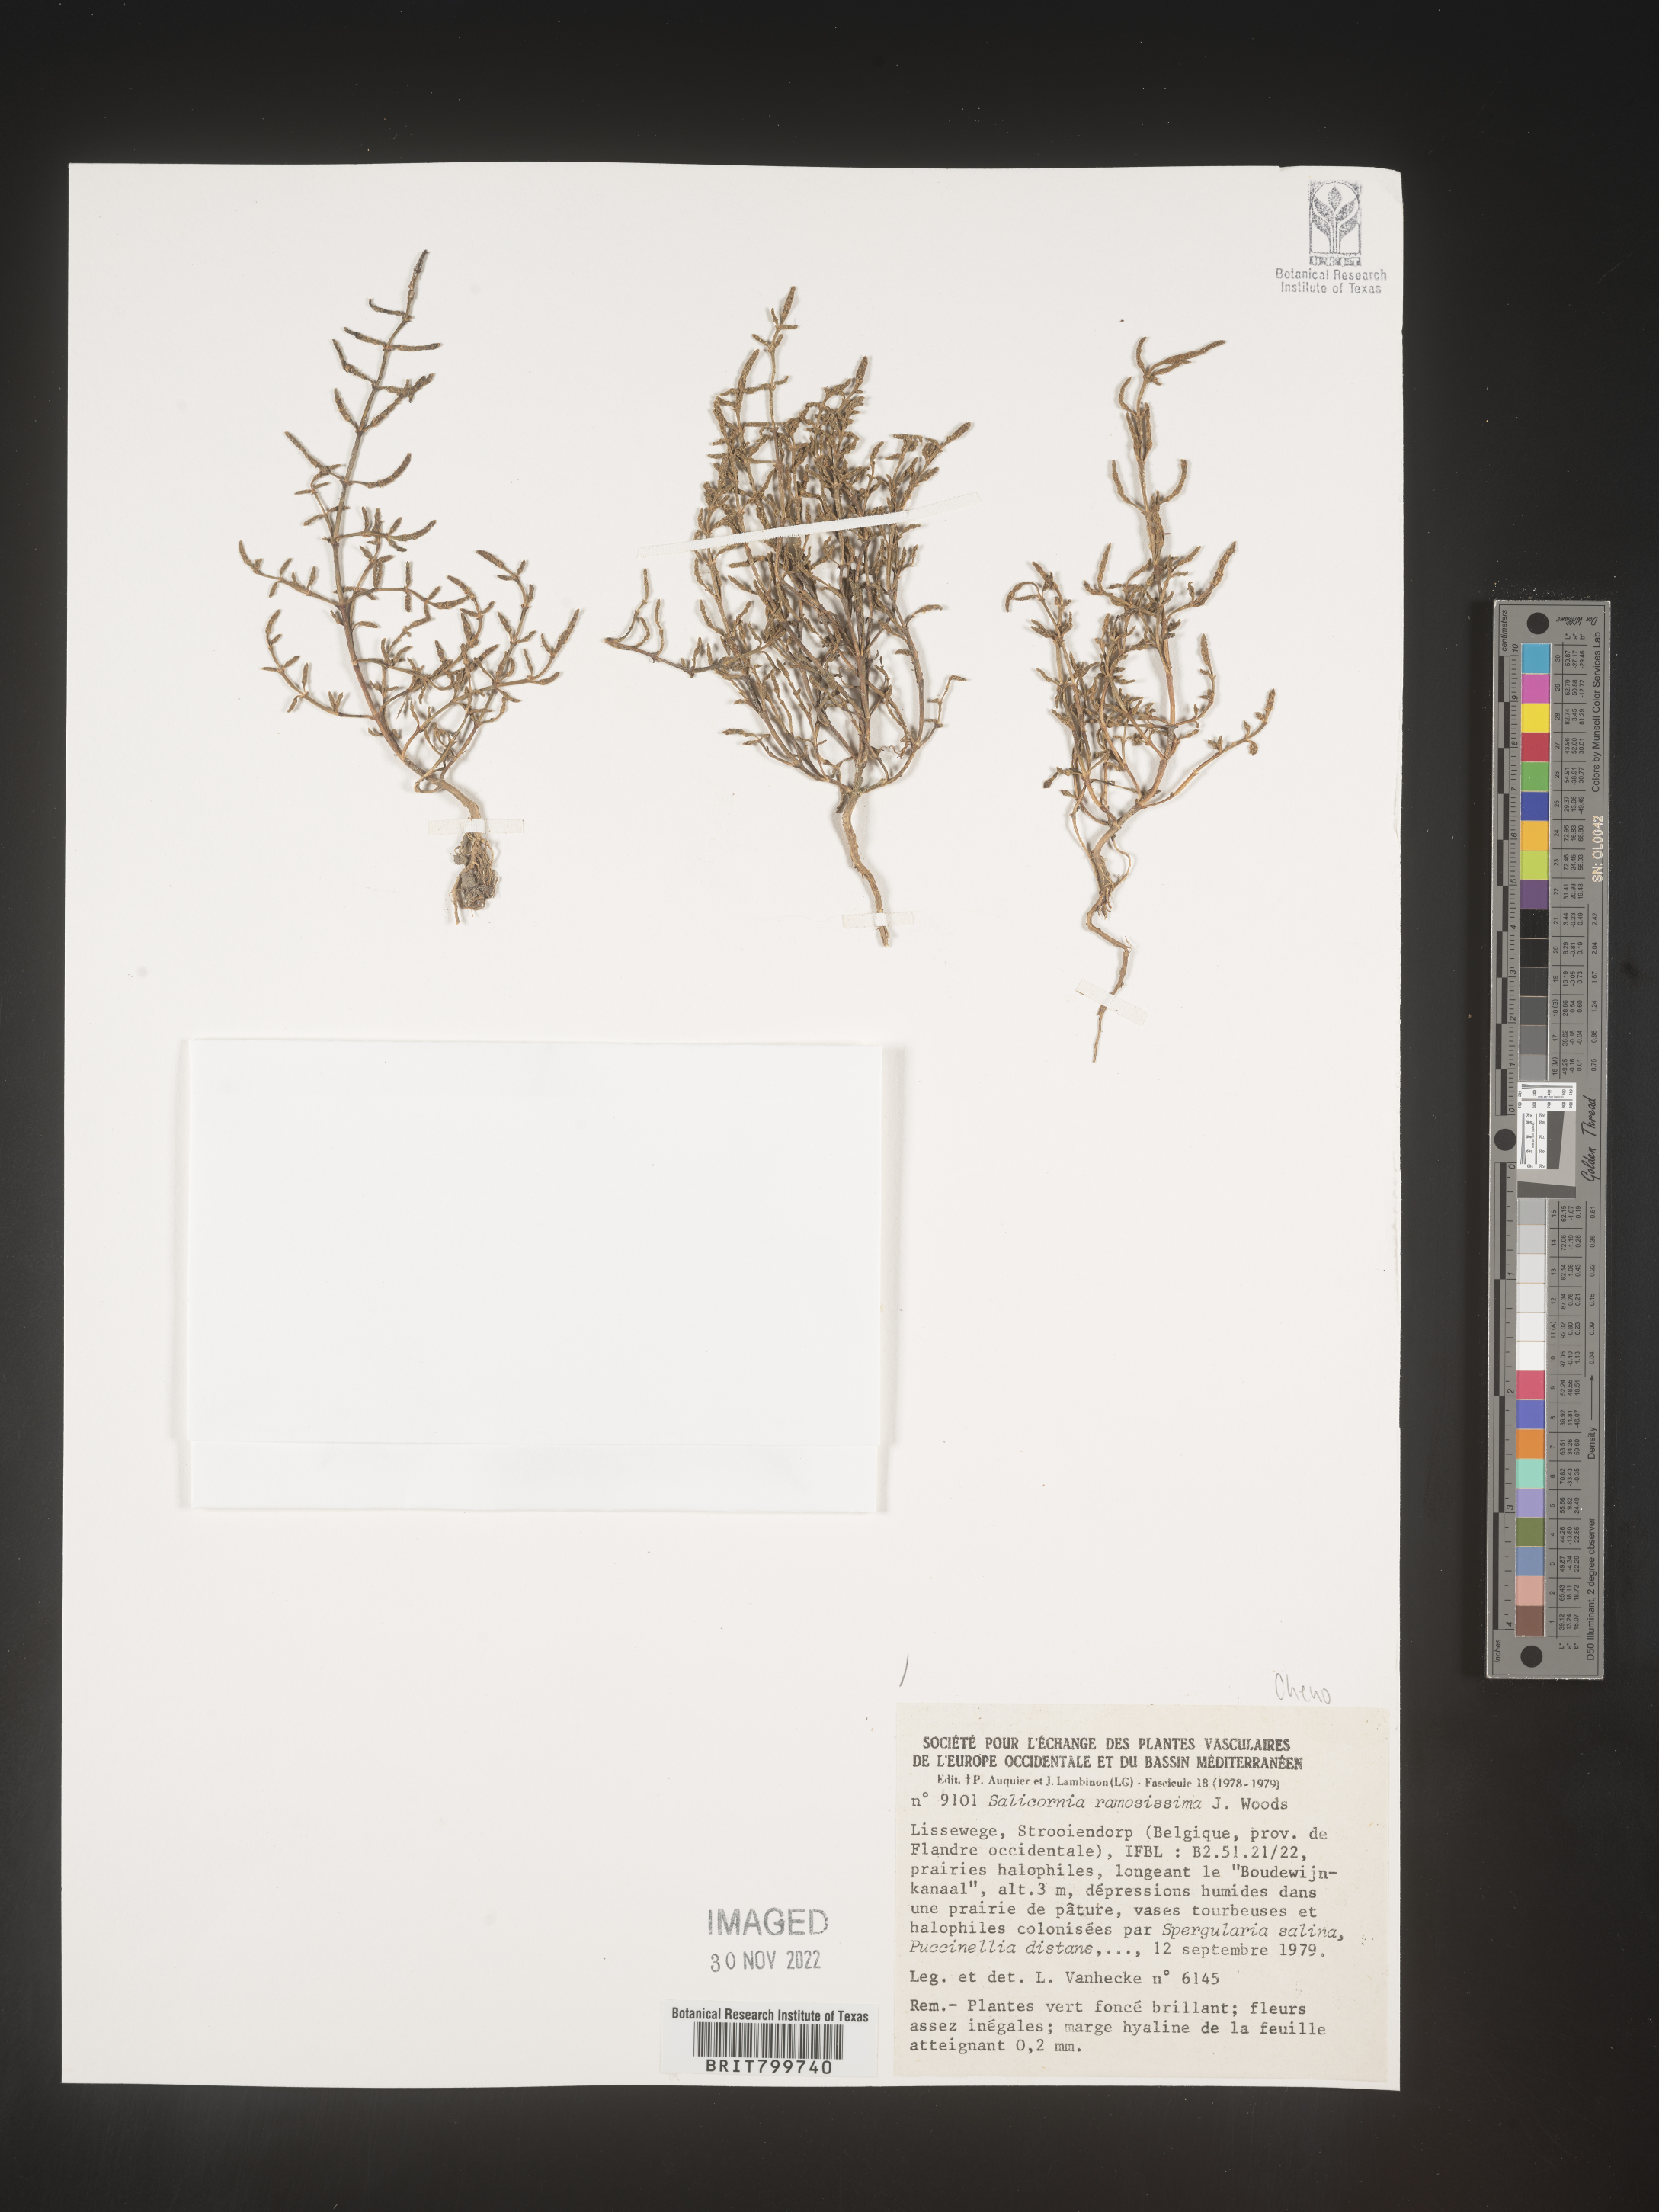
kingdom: Plantae
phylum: Tracheophyta
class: Magnoliopsida
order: Caryophyllales
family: Amaranthaceae
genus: Salicornia
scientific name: Salicornia
